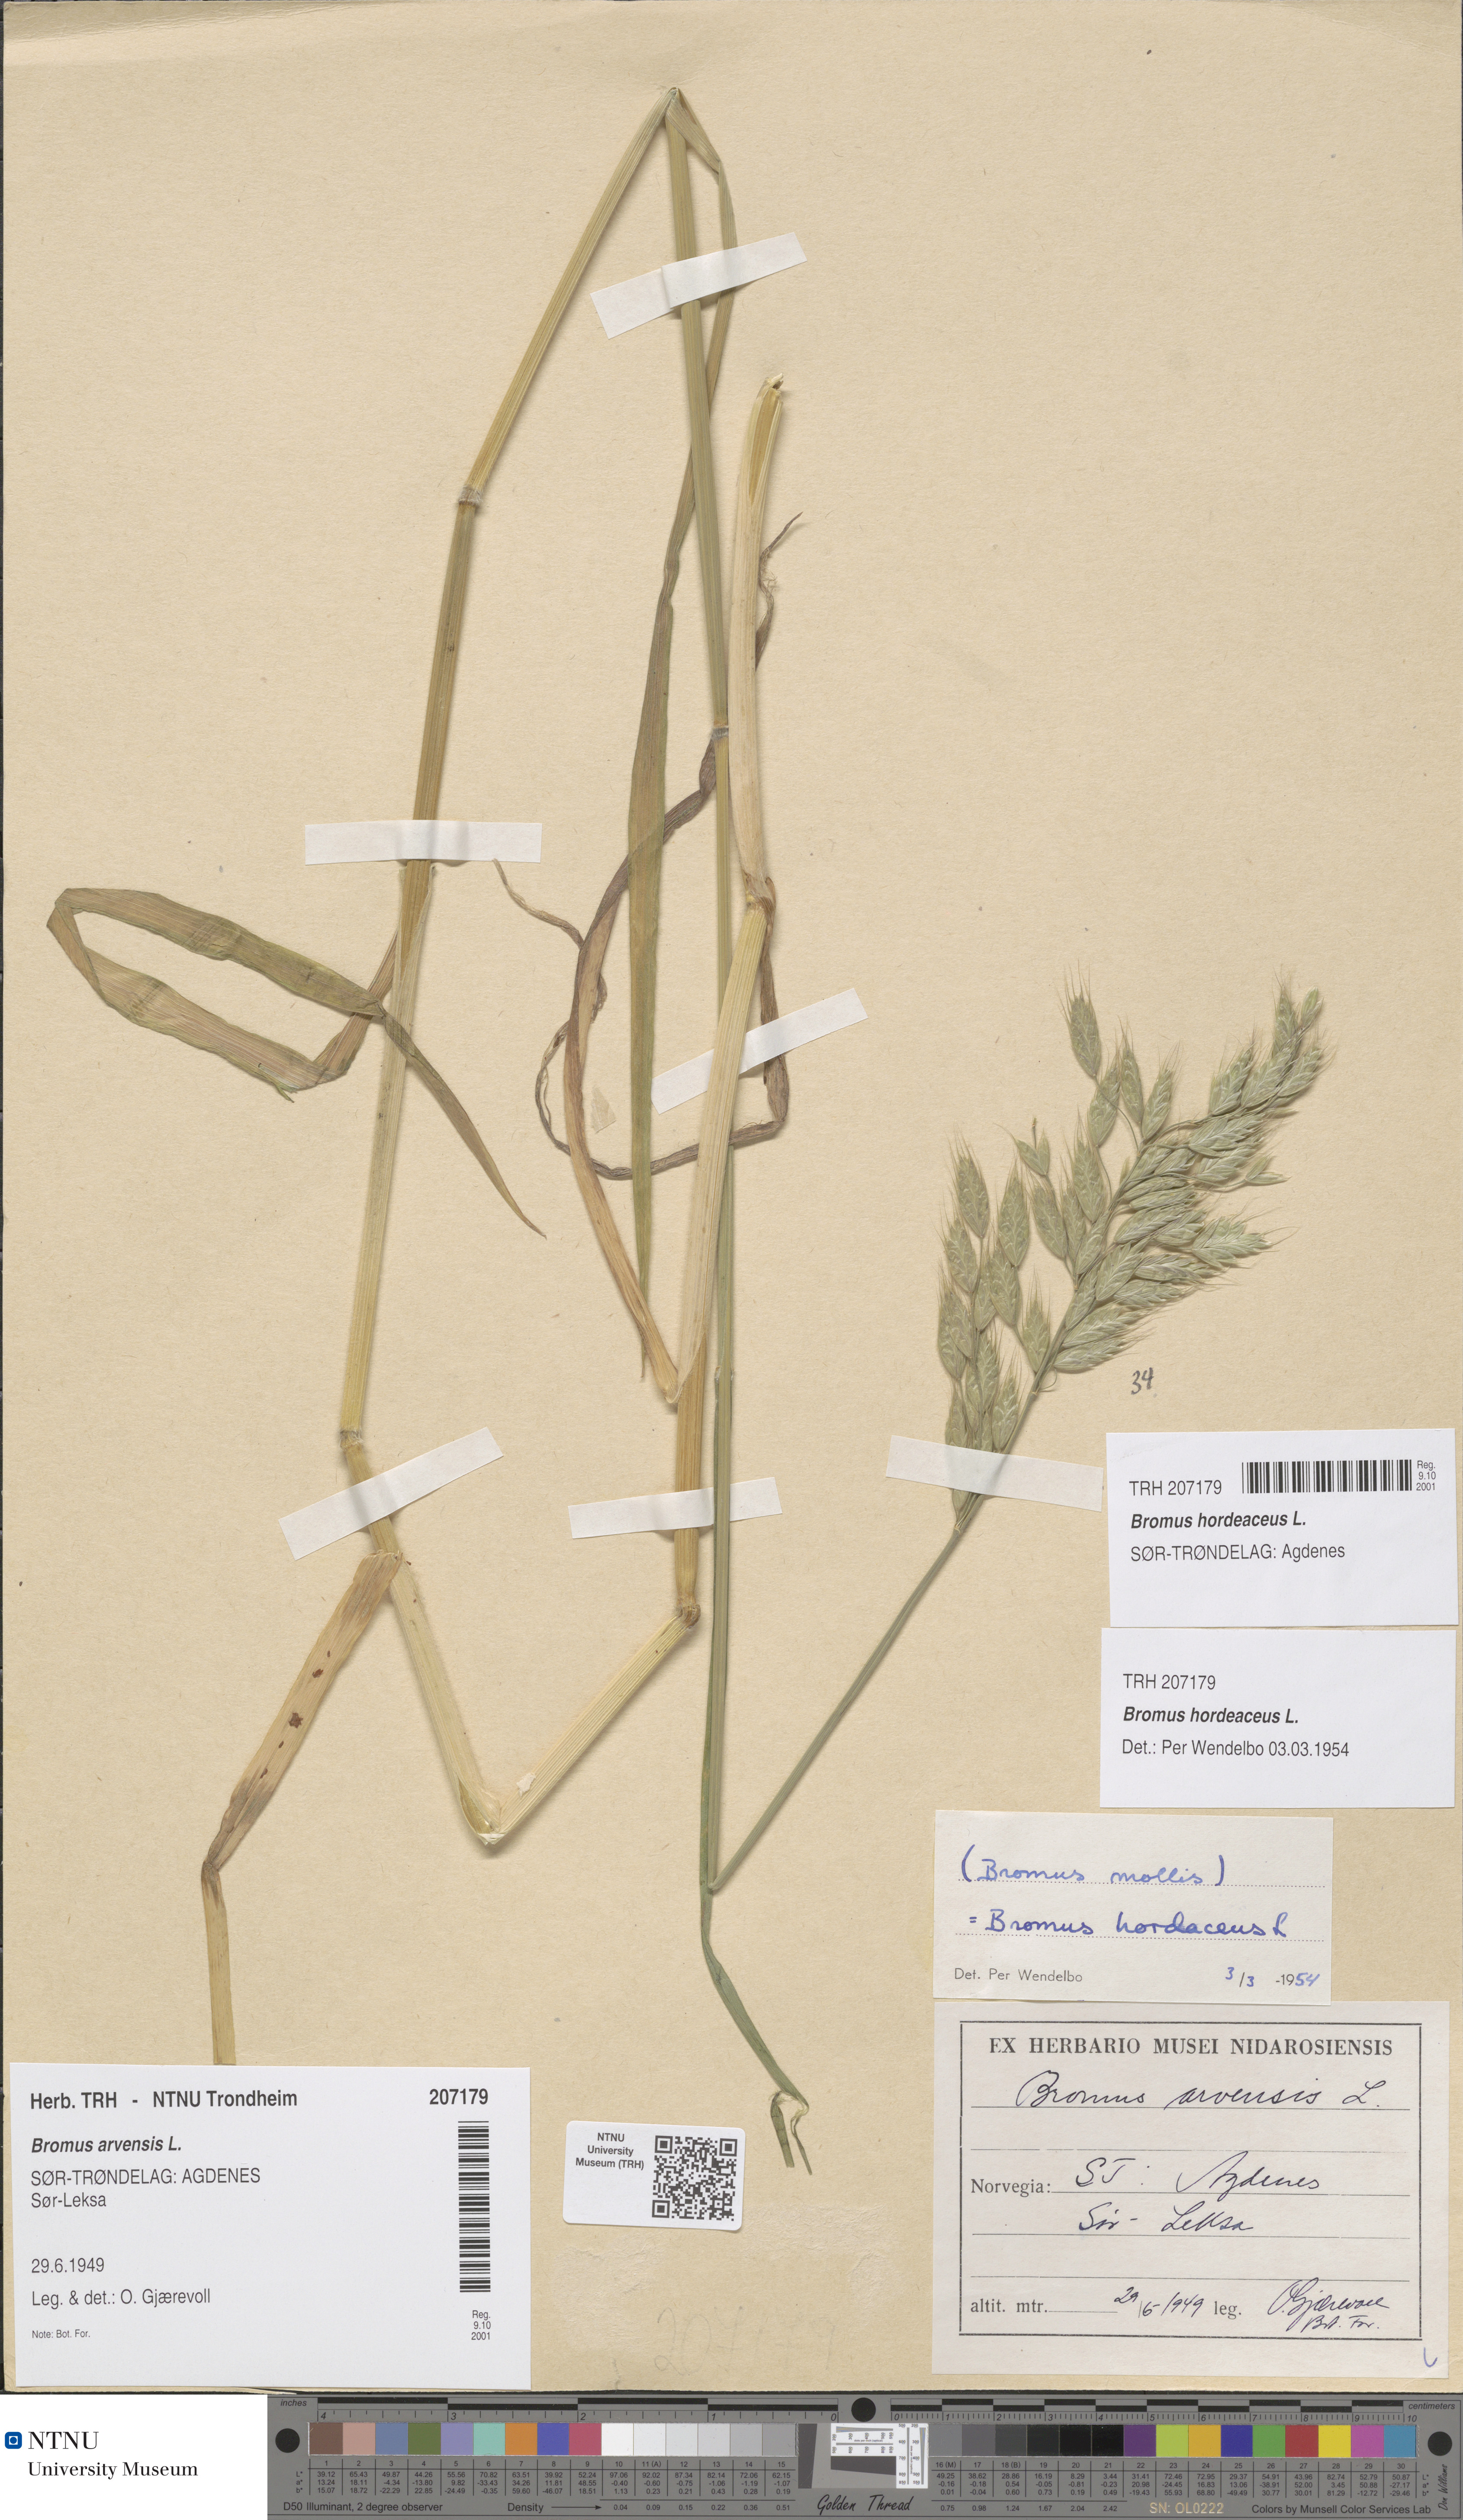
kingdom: Plantae
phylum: Tracheophyta
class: Liliopsida
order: Poales
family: Poaceae
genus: Bromus
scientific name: Bromus hordeaceus
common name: Soft brome
